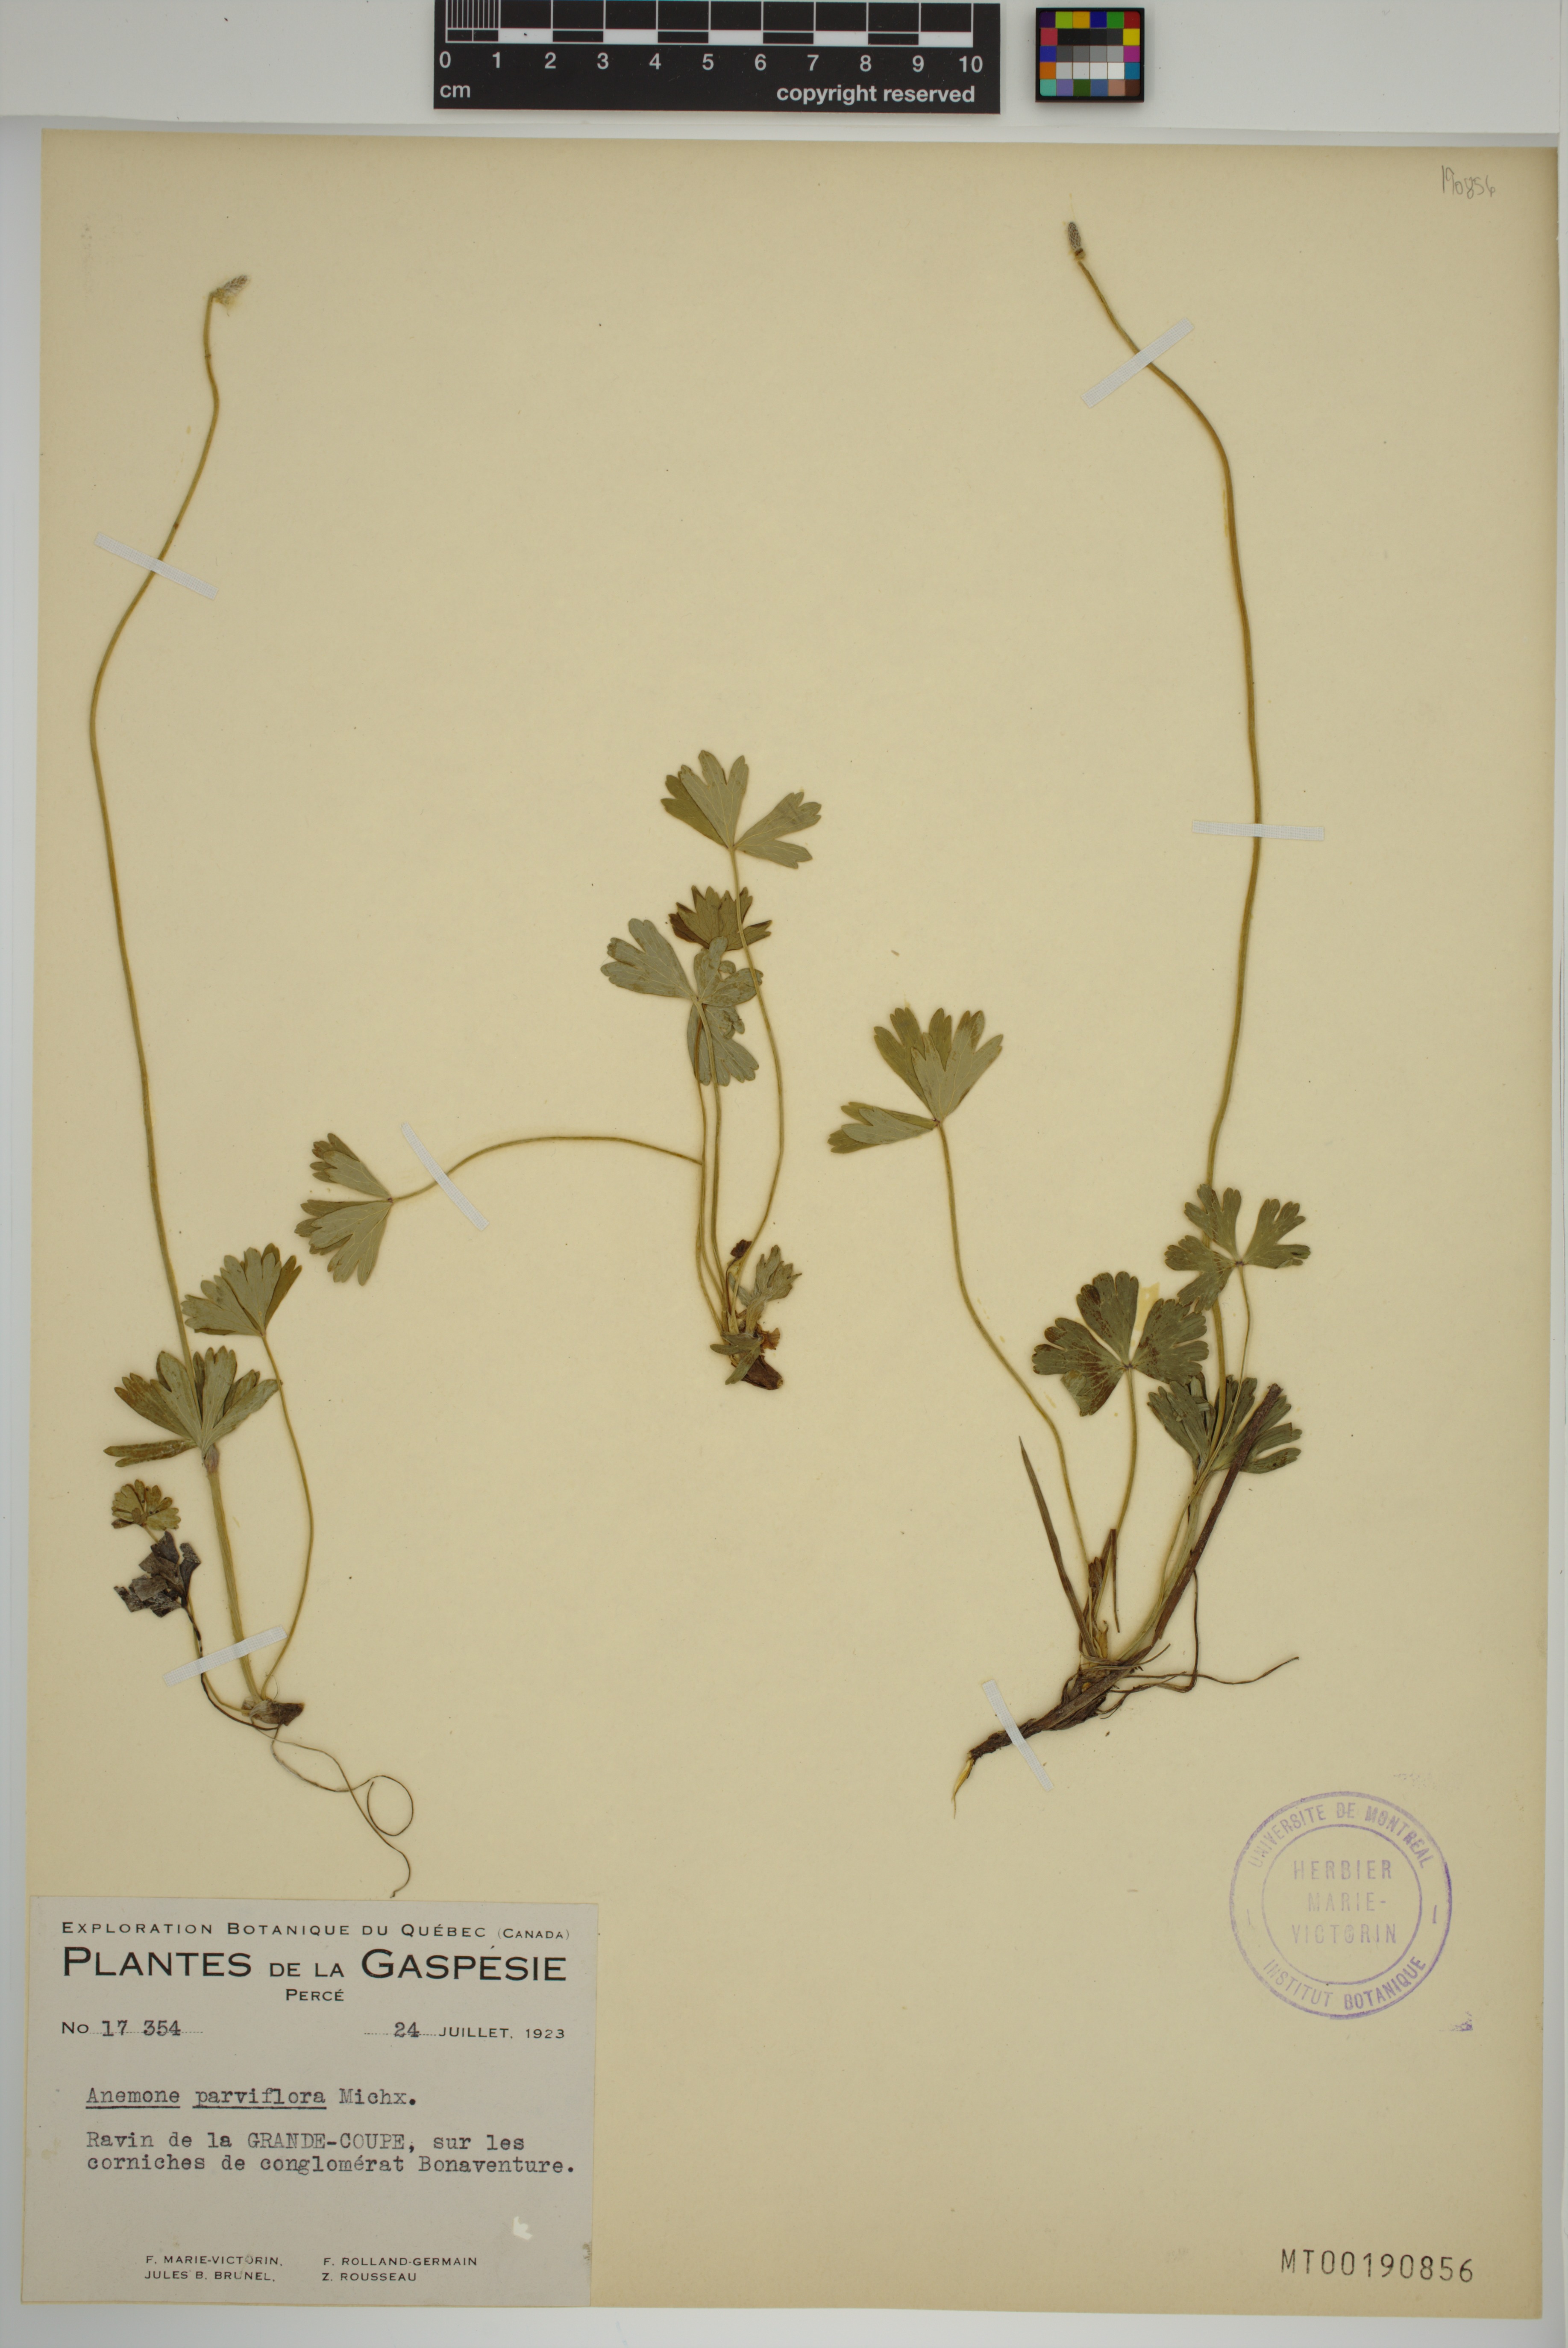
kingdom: Plantae
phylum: Tracheophyta
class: Magnoliopsida
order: Ranunculales
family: Ranunculaceae
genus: Anemone
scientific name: Anemone parviflora
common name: Northern anemone
